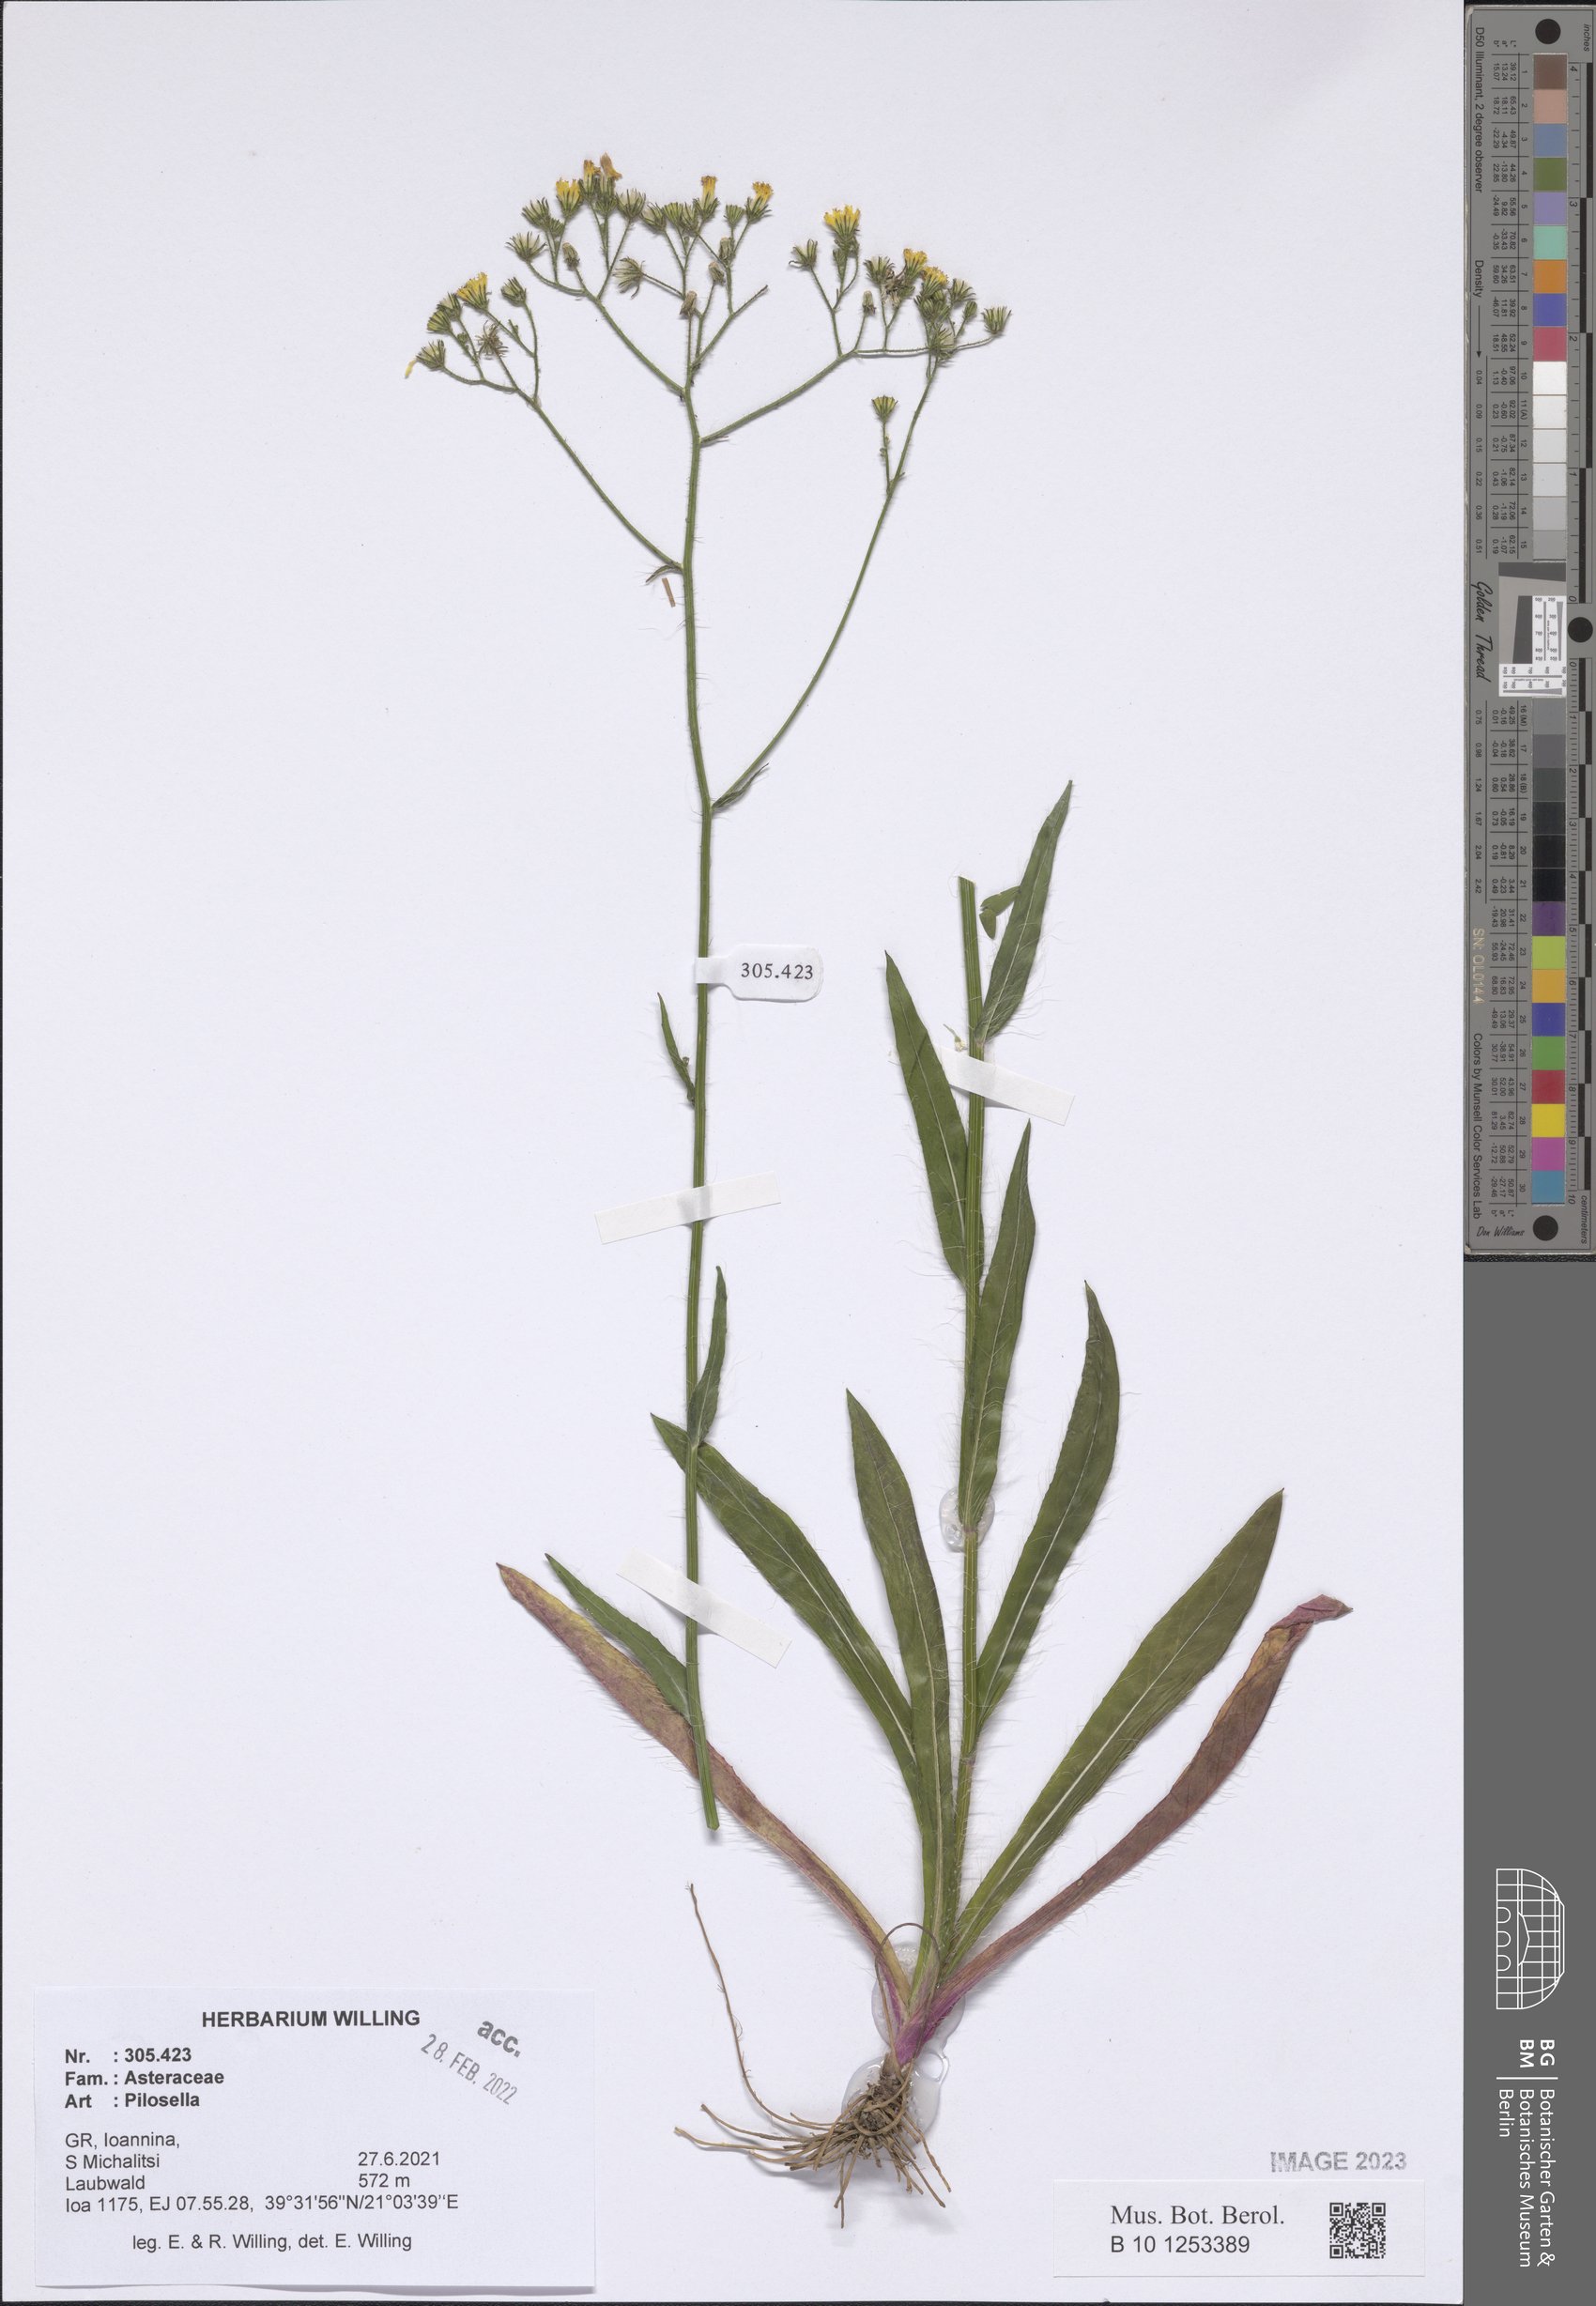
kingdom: Plantae
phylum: Tracheophyta
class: Magnoliopsida
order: Asterales
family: Asteraceae
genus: Pilosella
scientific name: Pilosella
